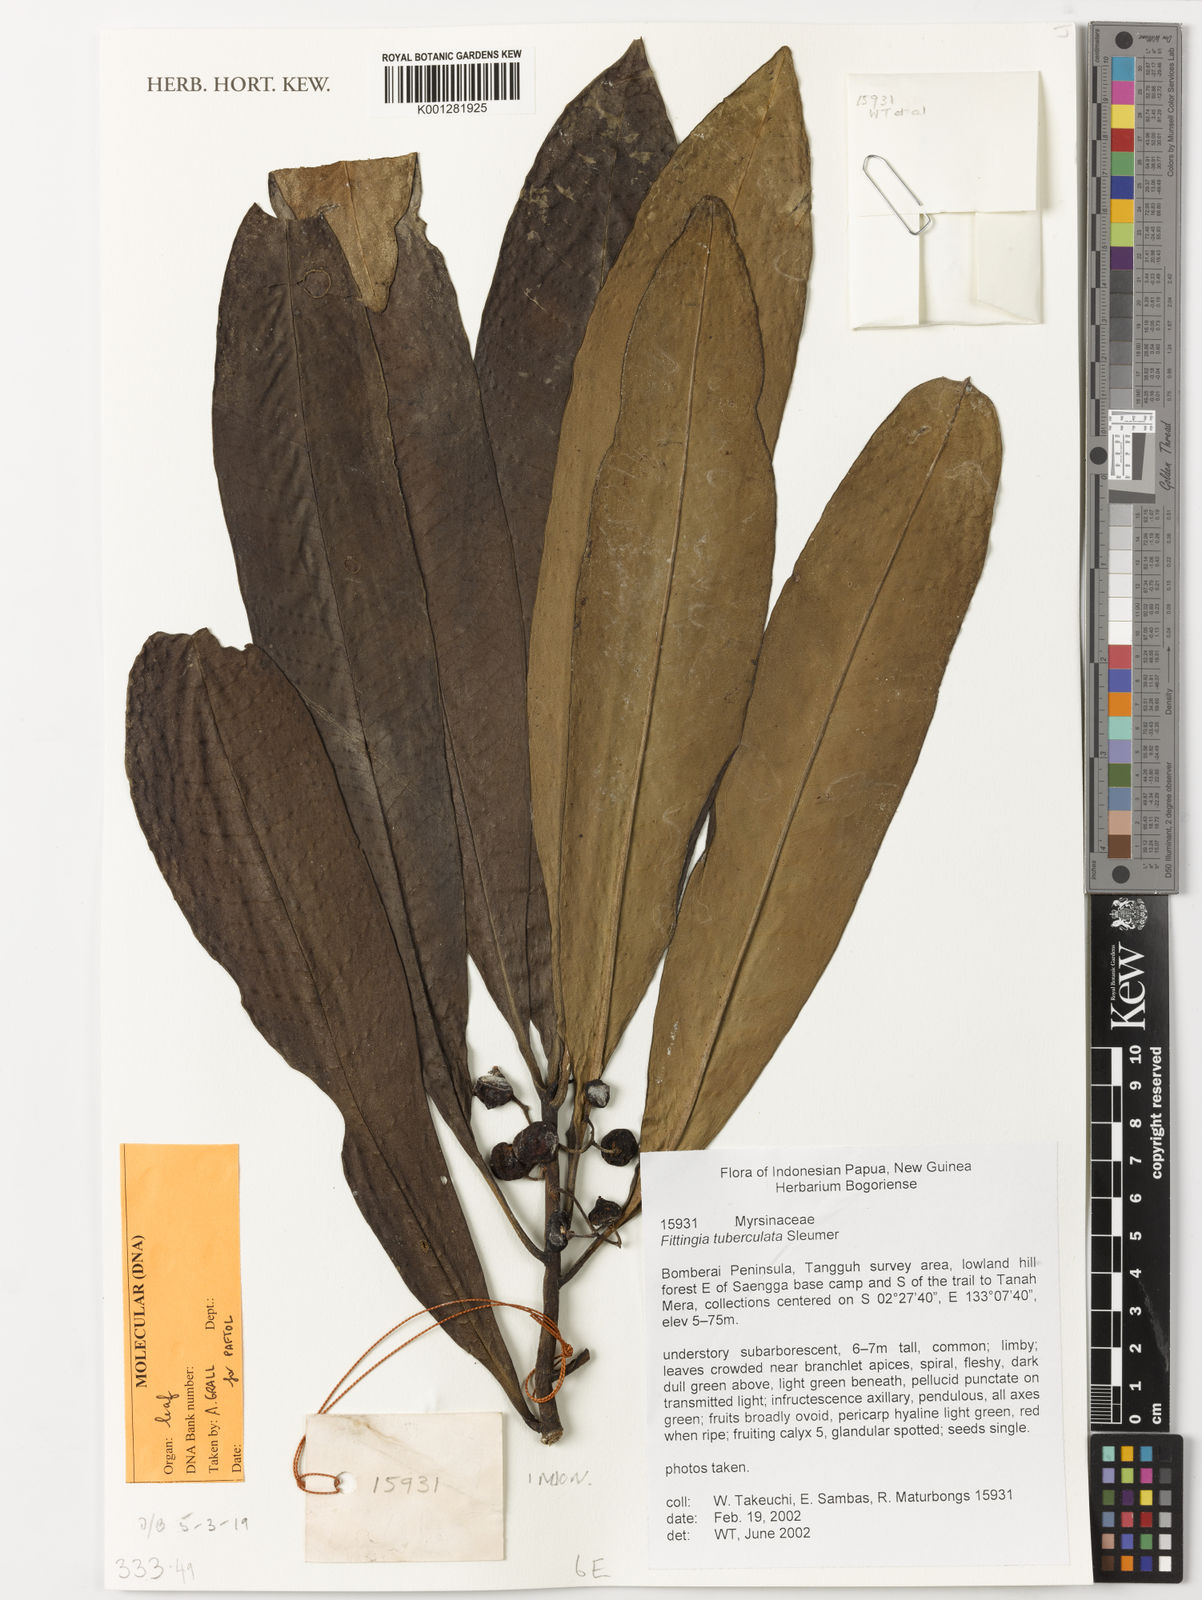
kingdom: Plantae
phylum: Tracheophyta
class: Magnoliopsida
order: Ericales
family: Primulaceae
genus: Fittingia
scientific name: Fittingia tuberculata
